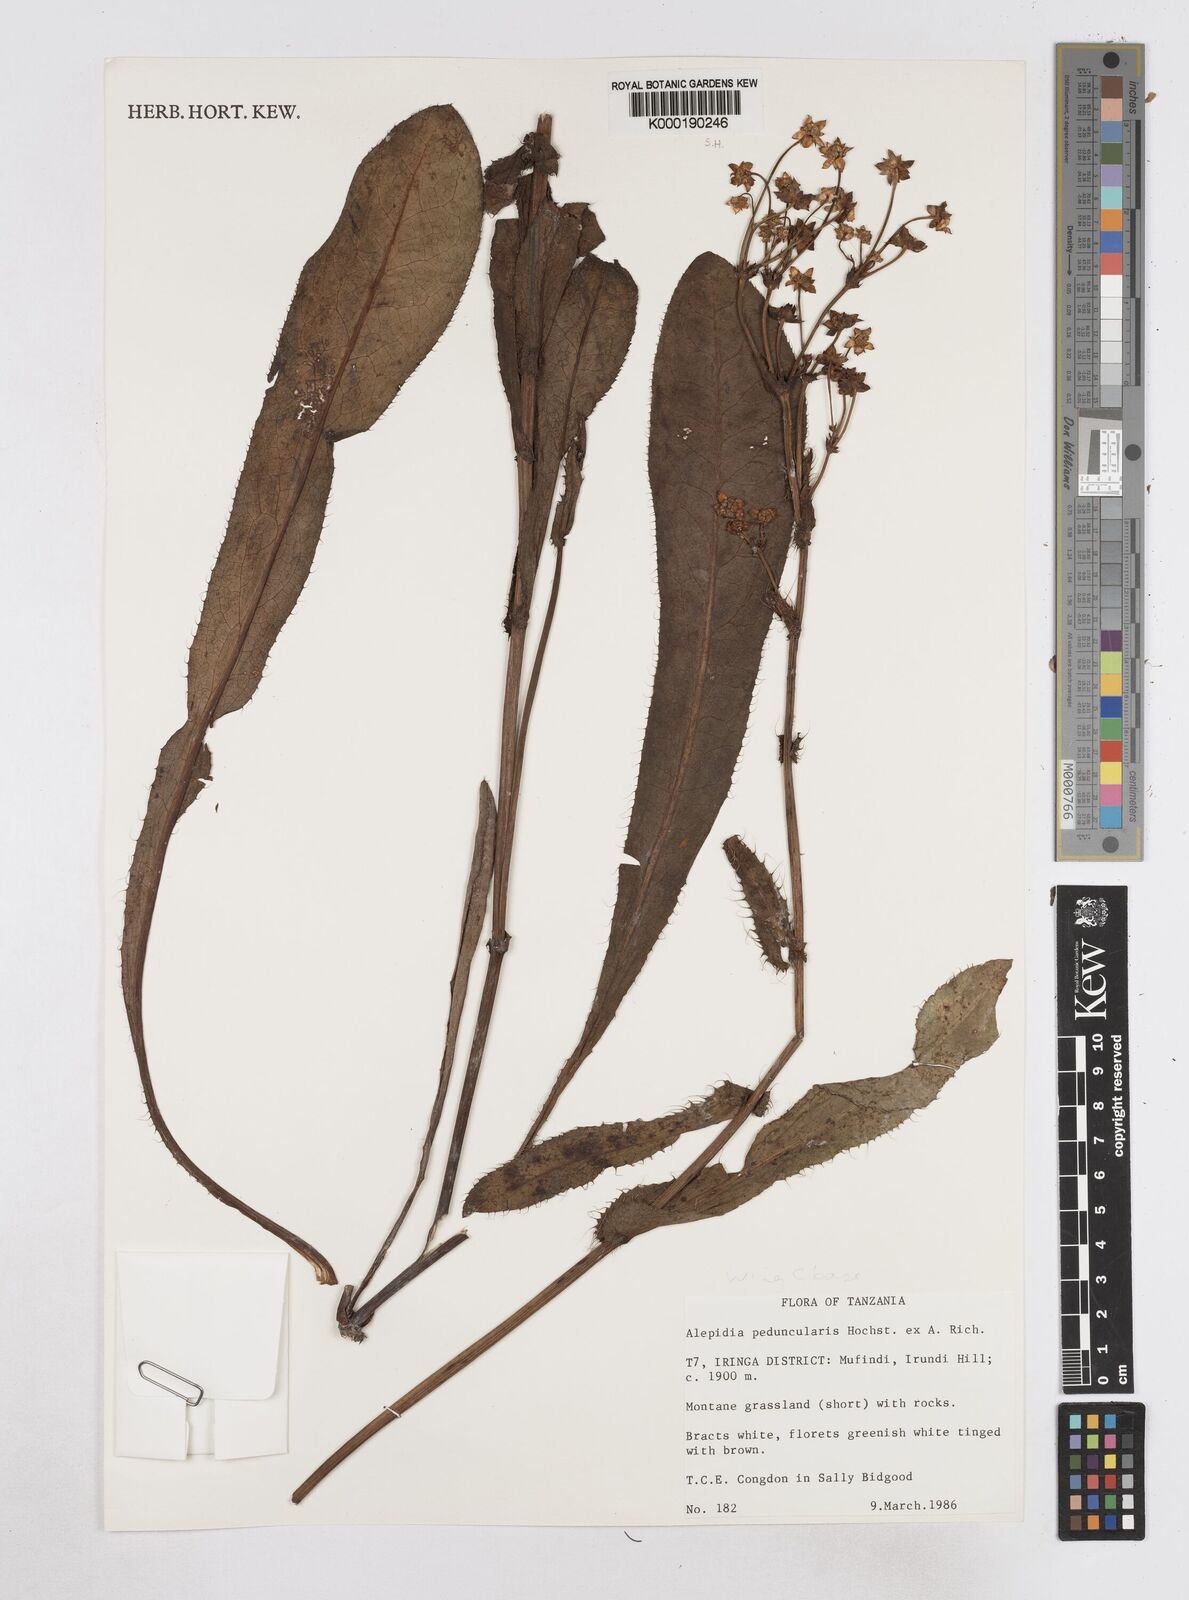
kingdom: Plantae
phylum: Tracheophyta
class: Magnoliopsida
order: Apiales
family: Apiaceae
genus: Alepidea
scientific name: Alepidea peduncularis
